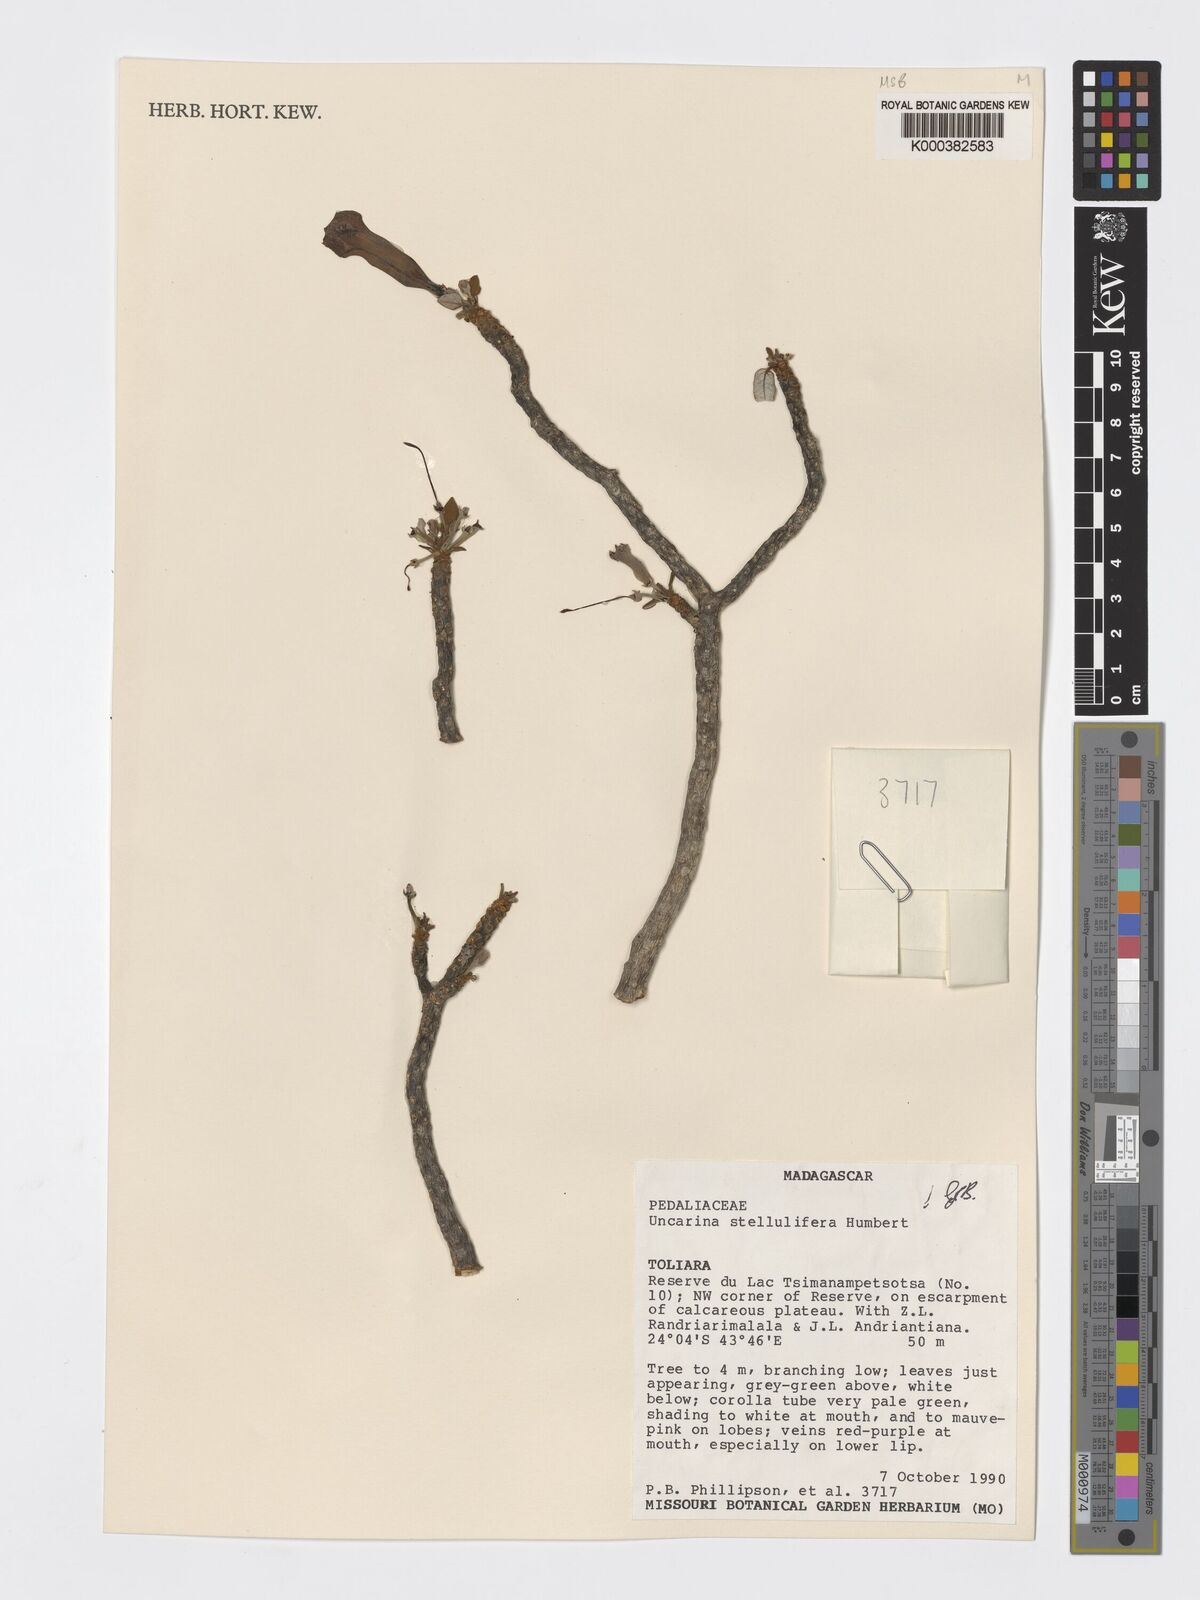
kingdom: Plantae
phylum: Tracheophyta
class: Magnoliopsida
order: Lamiales
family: Pedaliaceae
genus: Uncarina
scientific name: Uncarina stellulifera
